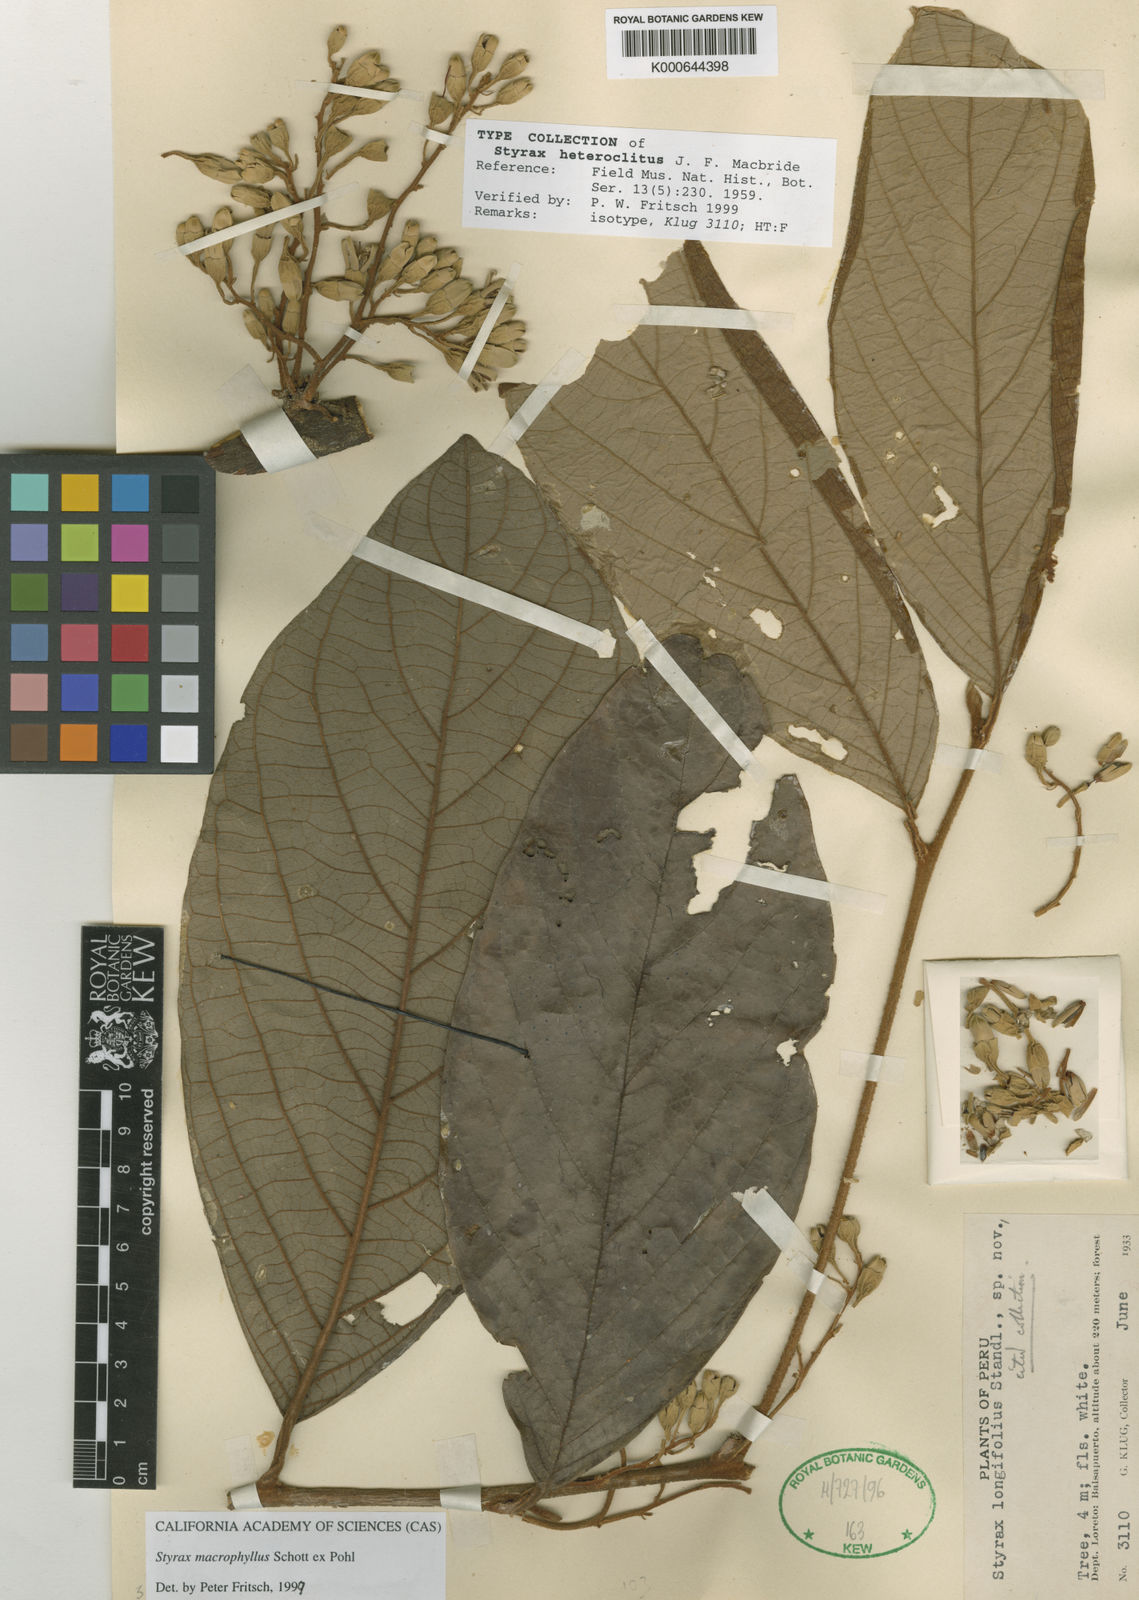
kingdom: Plantae
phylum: Tracheophyta
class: Magnoliopsida
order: Ericales
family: Styracaceae
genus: Styrax
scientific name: Styrax macrophyllus
